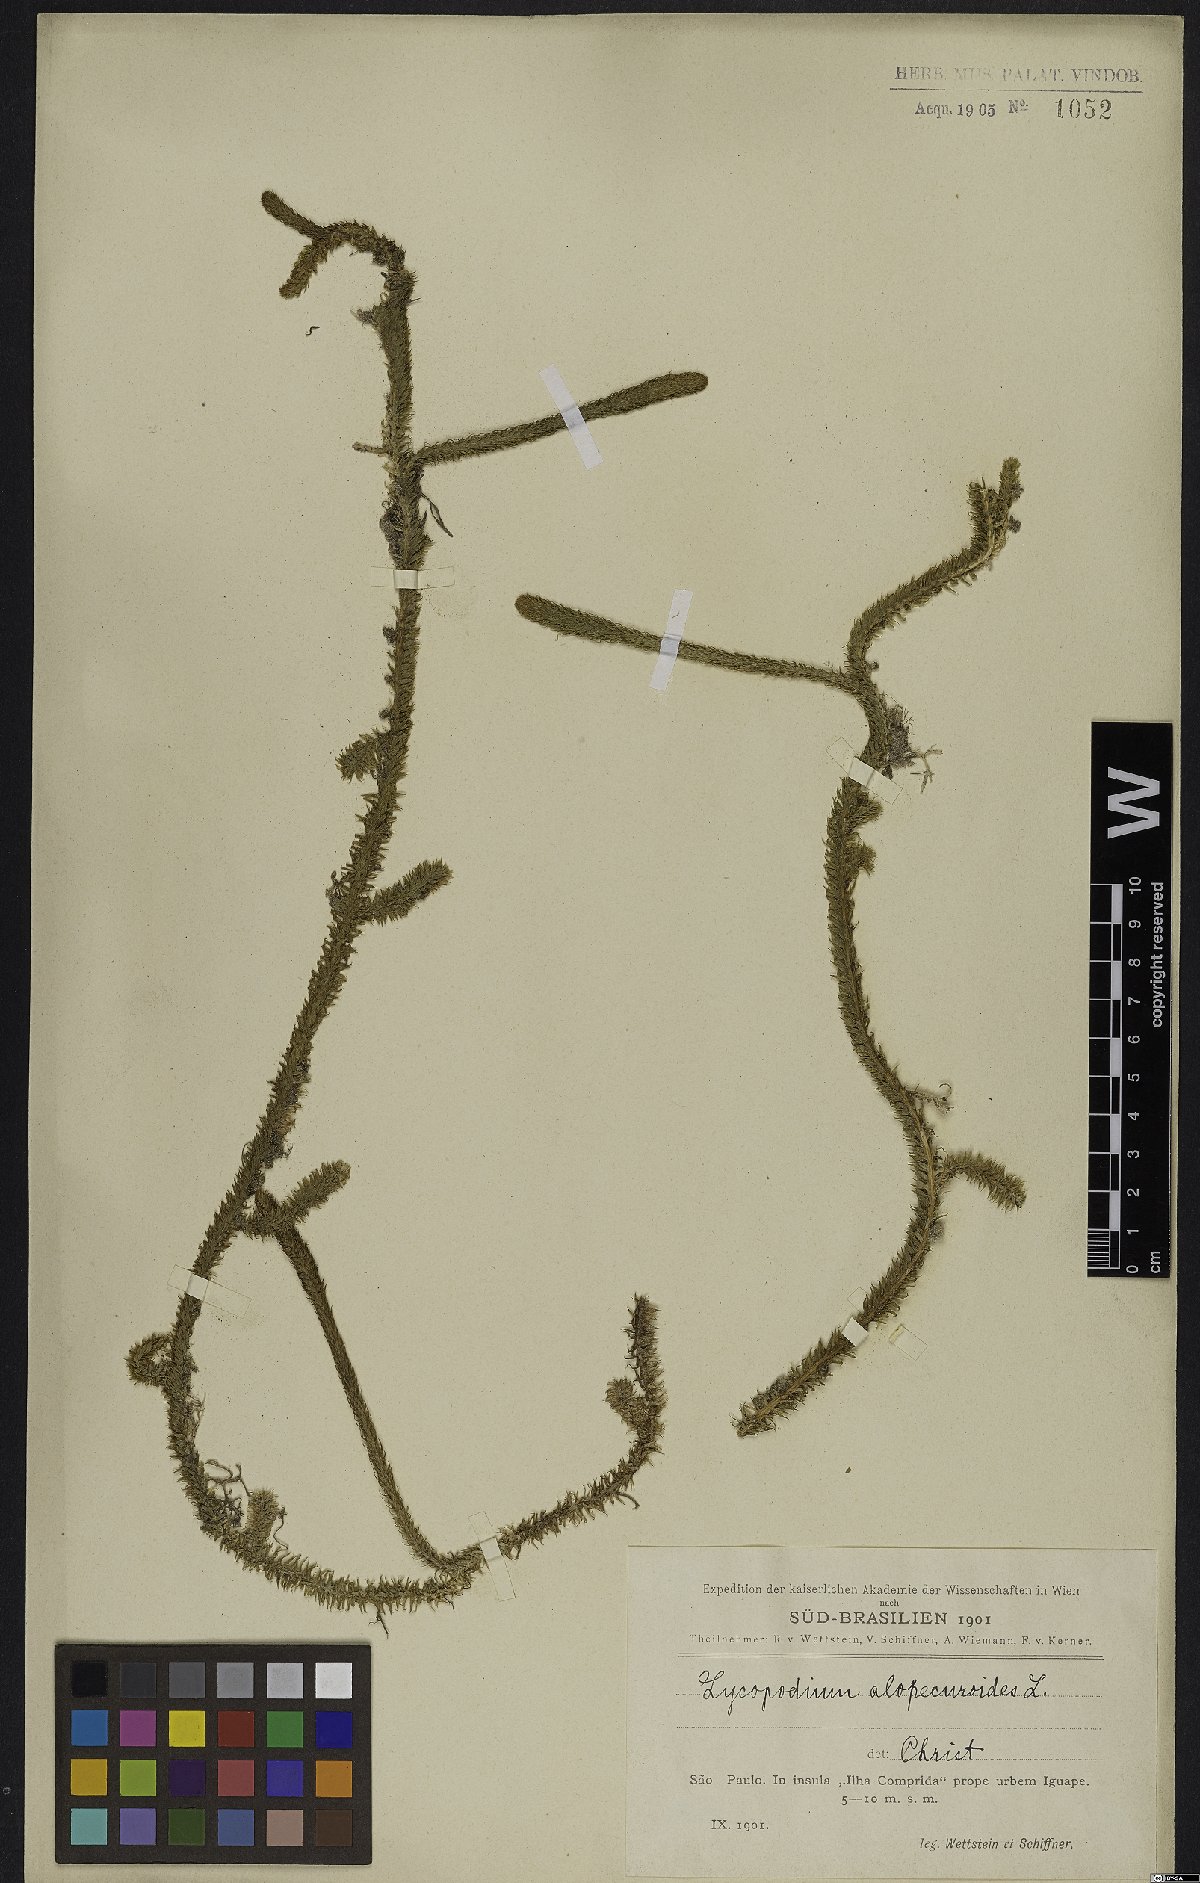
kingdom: Plantae
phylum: Tracheophyta
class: Lycopodiopsida
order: Lycopodiales
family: Lycopodiaceae
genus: Lycopodiella
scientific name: Lycopodiella alopecuroides
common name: Foxtail clubmoss
